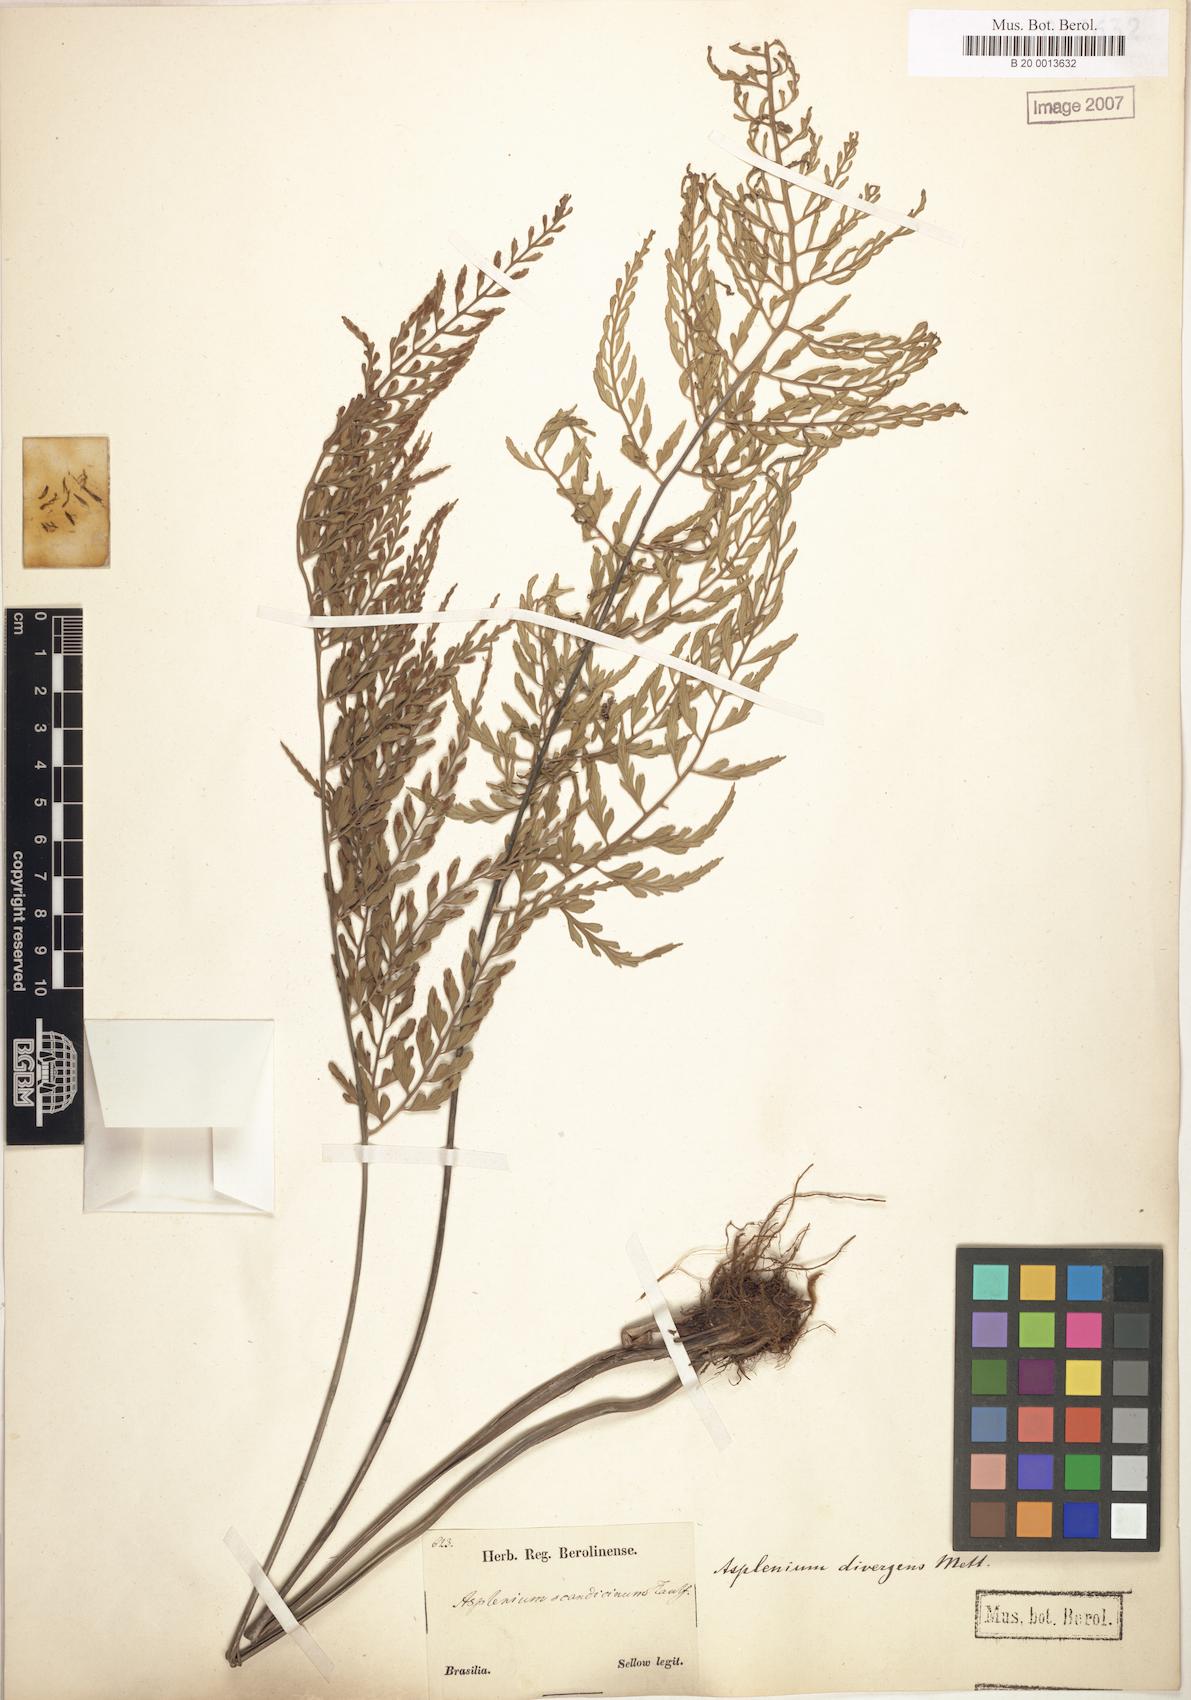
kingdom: Plantae
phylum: Tracheophyta
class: Polypodiopsida
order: Polypodiales
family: Aspleniaceae
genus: Asplenium
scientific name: Asplenium gastonis
